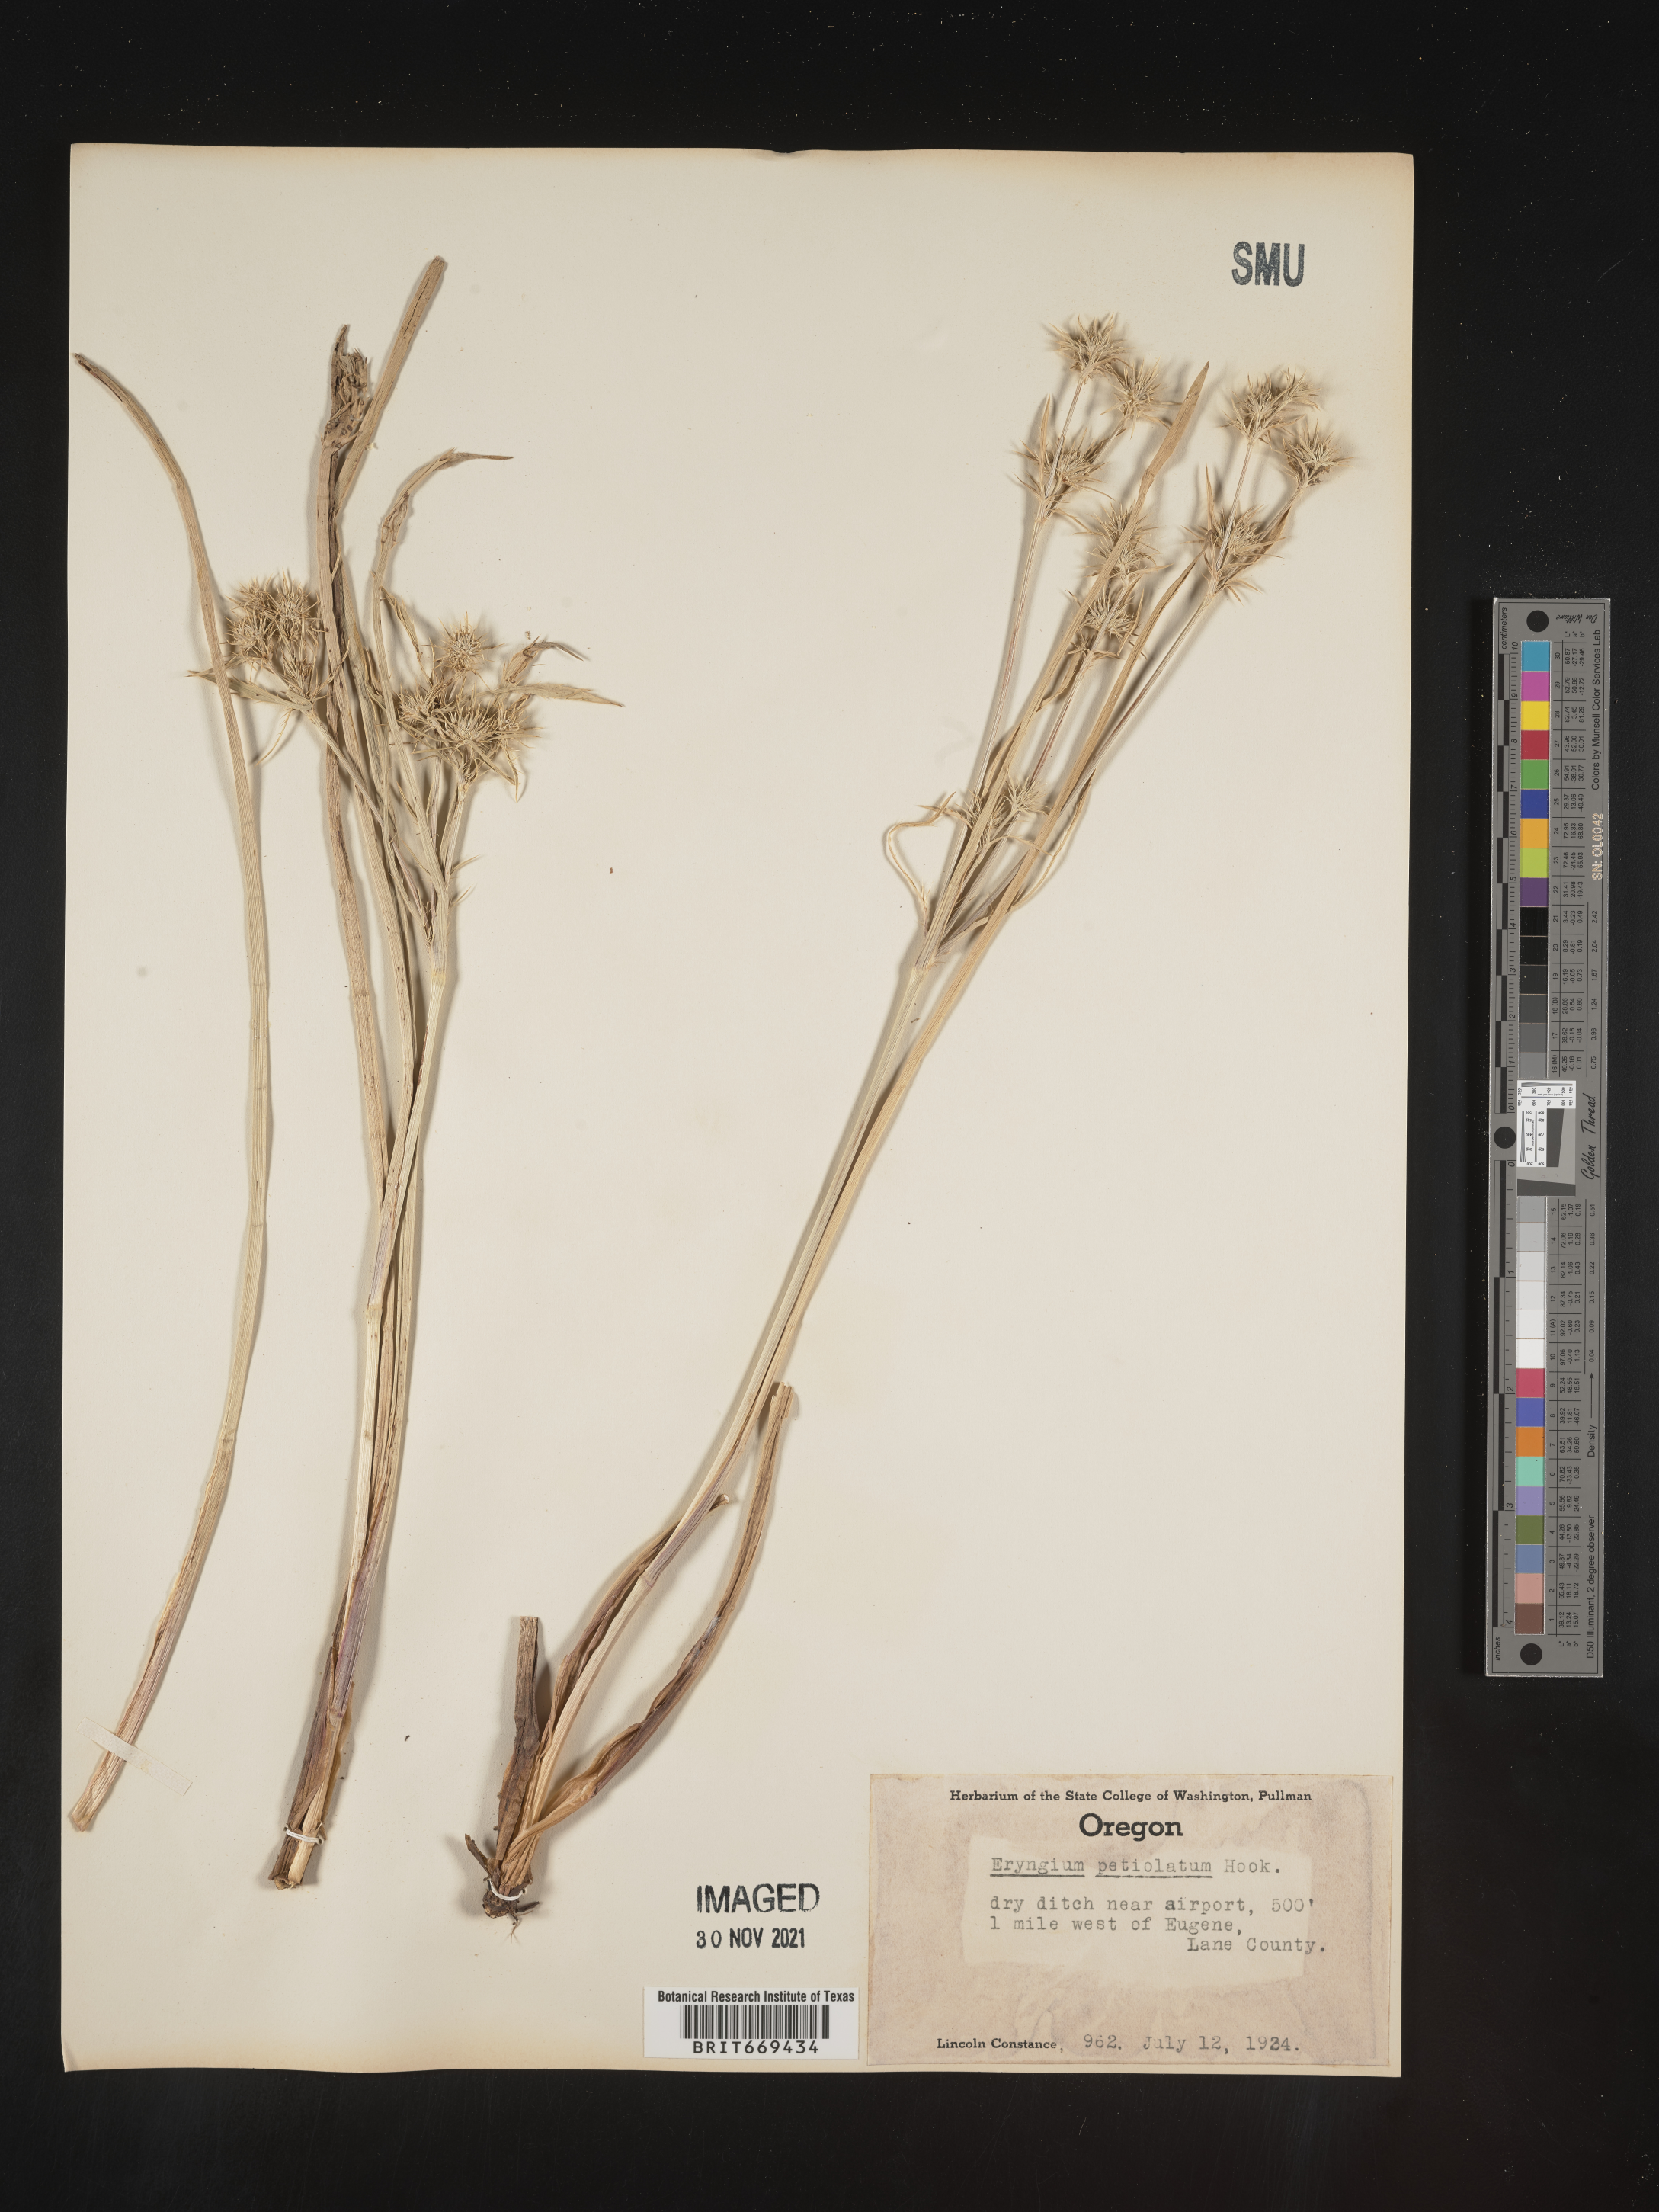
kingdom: Plantae
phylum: Tracheophyta
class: Magnoliopsida
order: Apiales
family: Apiaceae
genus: Eryngium
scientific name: Eryngium
